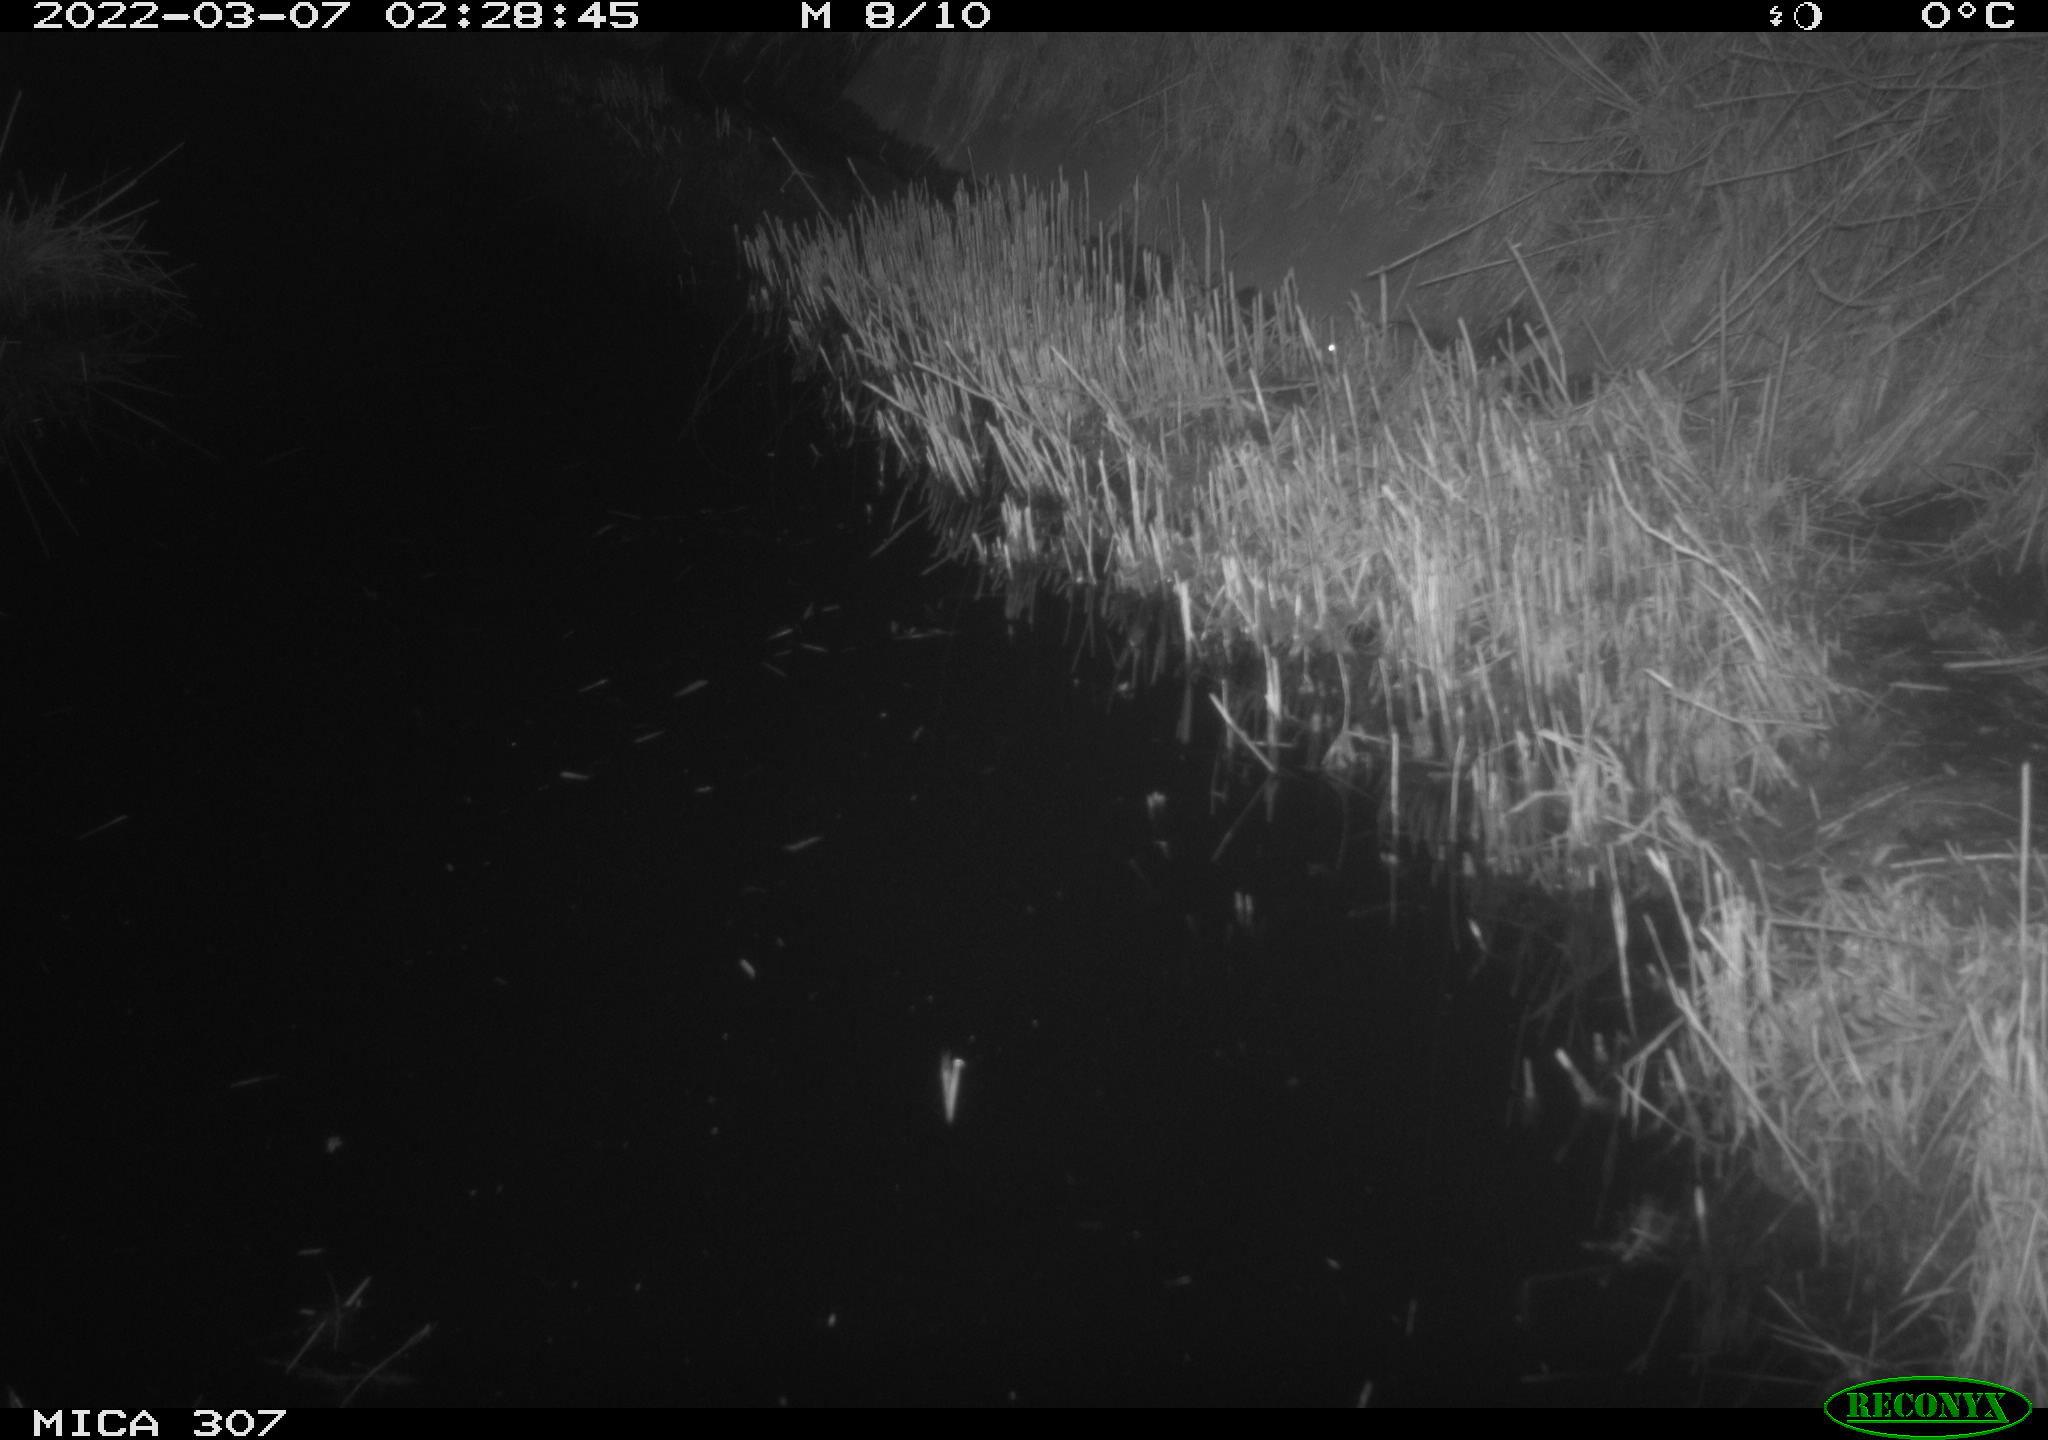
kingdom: Animalia
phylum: Chordata
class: Mammalia
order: Rodentia
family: Muridae
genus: Rattus
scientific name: Rattus norvegicus
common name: Brown rat
